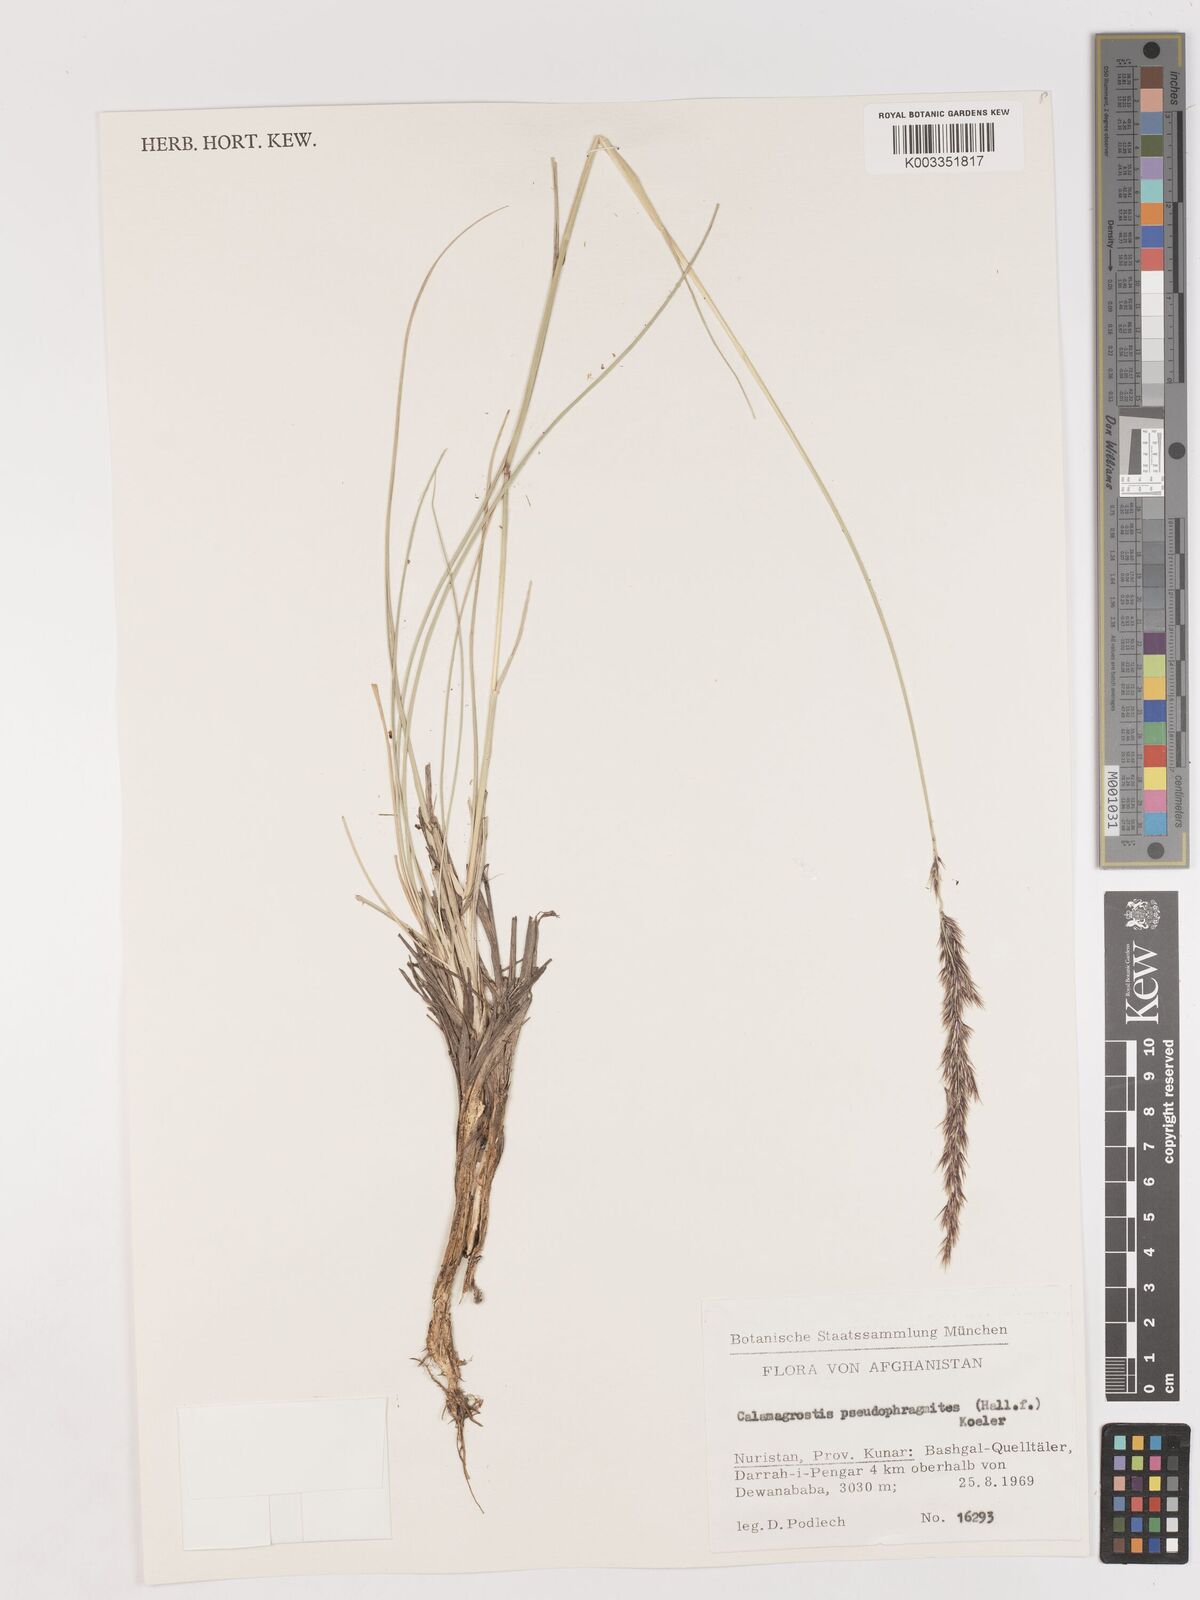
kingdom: Plantae
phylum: Tracheophyta
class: Liliopsida
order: Poales
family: Poaceae
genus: Calamagrostis
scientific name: Calamagrostis pseudophragmites
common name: Coastal small-reed
